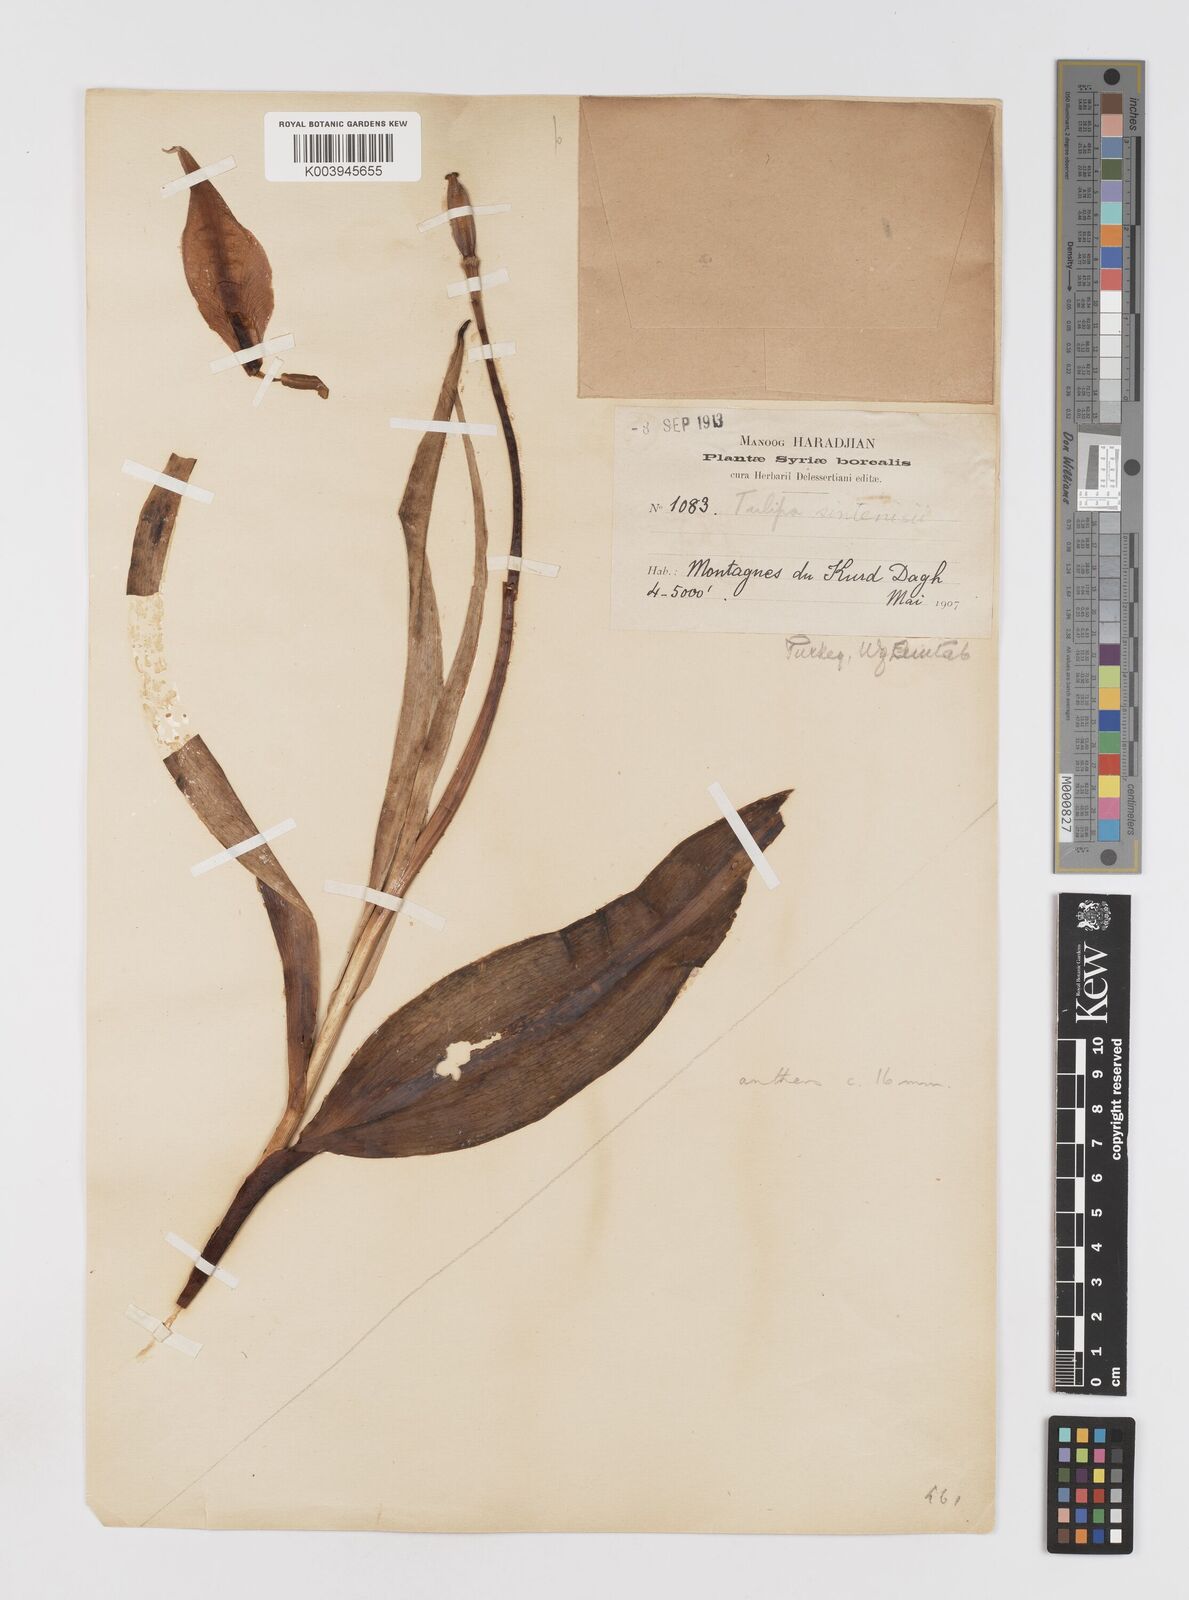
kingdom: Plantae
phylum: Tracheophyta
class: Liliopsida
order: Liliales
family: Liliaceae
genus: Tulipa
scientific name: Tulipa aleppensis
